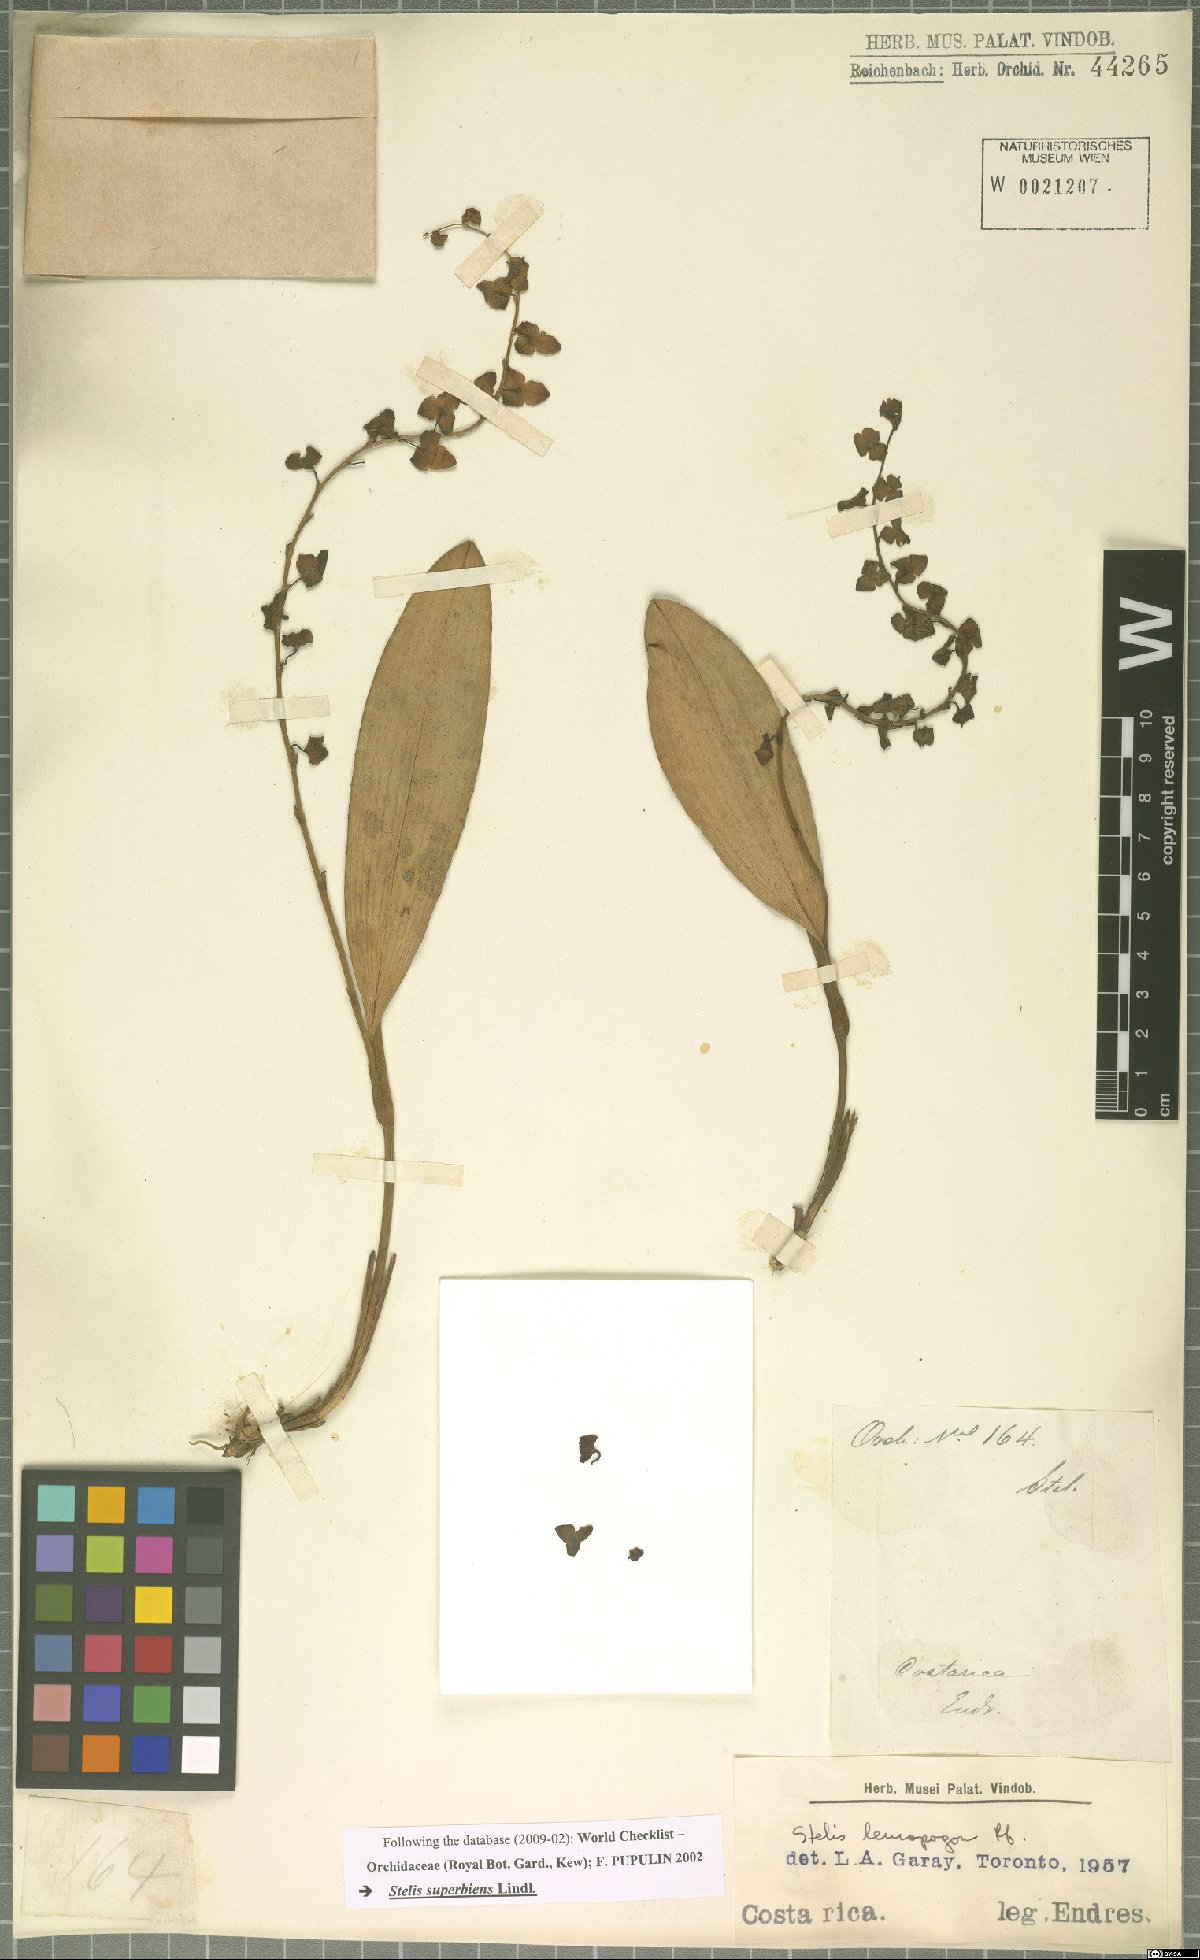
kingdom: Plantae
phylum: Tracheophyta
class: Liliopsida
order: Asparagales
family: Orchidaceae
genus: Stelis
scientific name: Stelis superbiens
